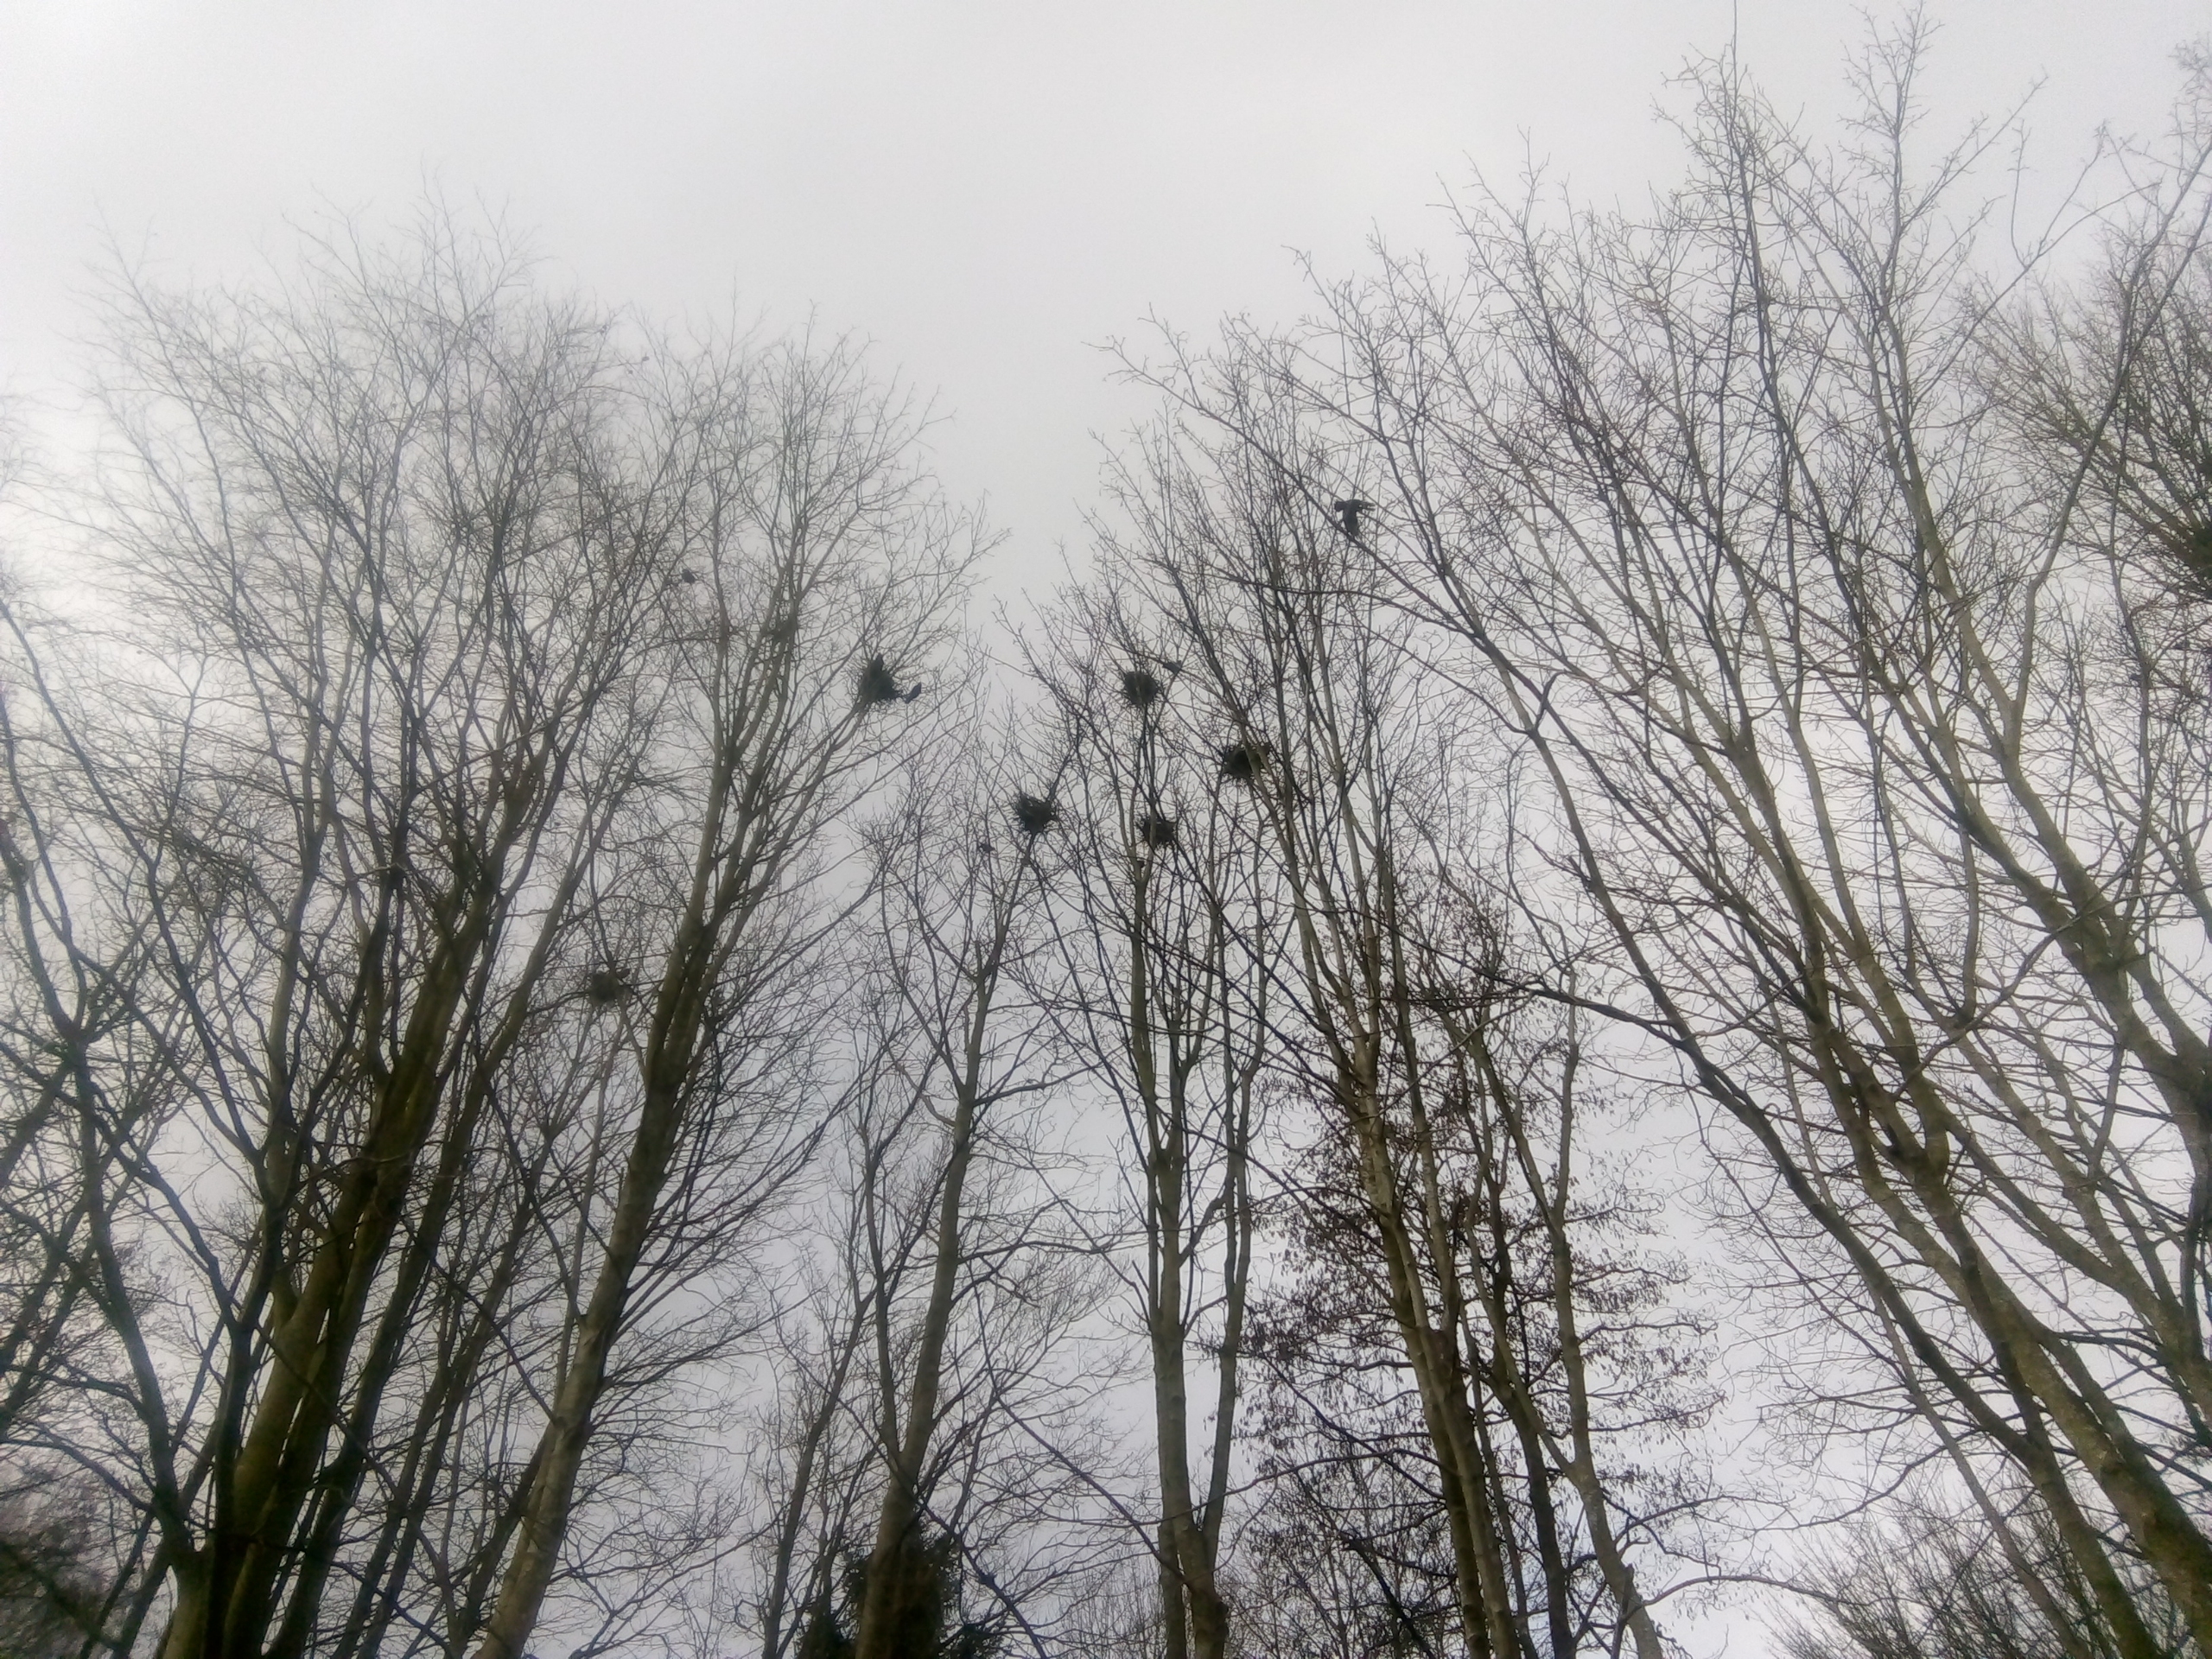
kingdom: Animalia
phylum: Chordata
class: Aves
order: Passeriformes
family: Corvidae
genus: Corvus
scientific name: Corvus frugilegus
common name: Råge
